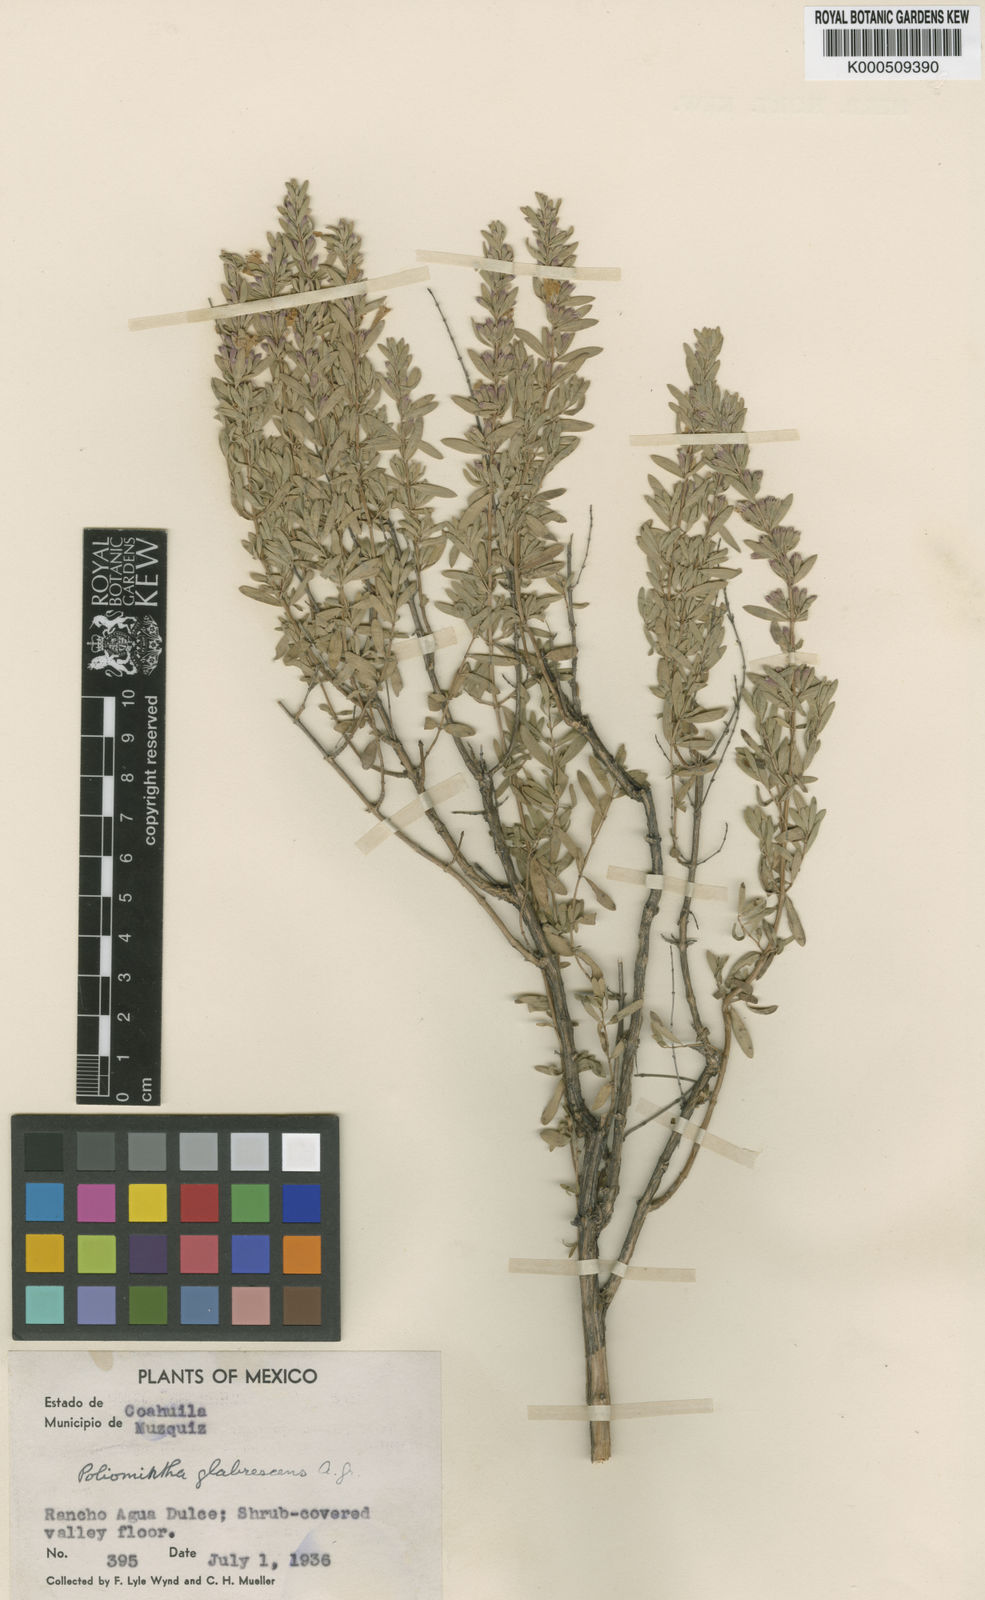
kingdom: Plantae
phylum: Tracheophyta
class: Magnoliopsida
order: Lamiales
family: Lamiaceae
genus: Poliomintha
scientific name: Poliomintha glabrescens
